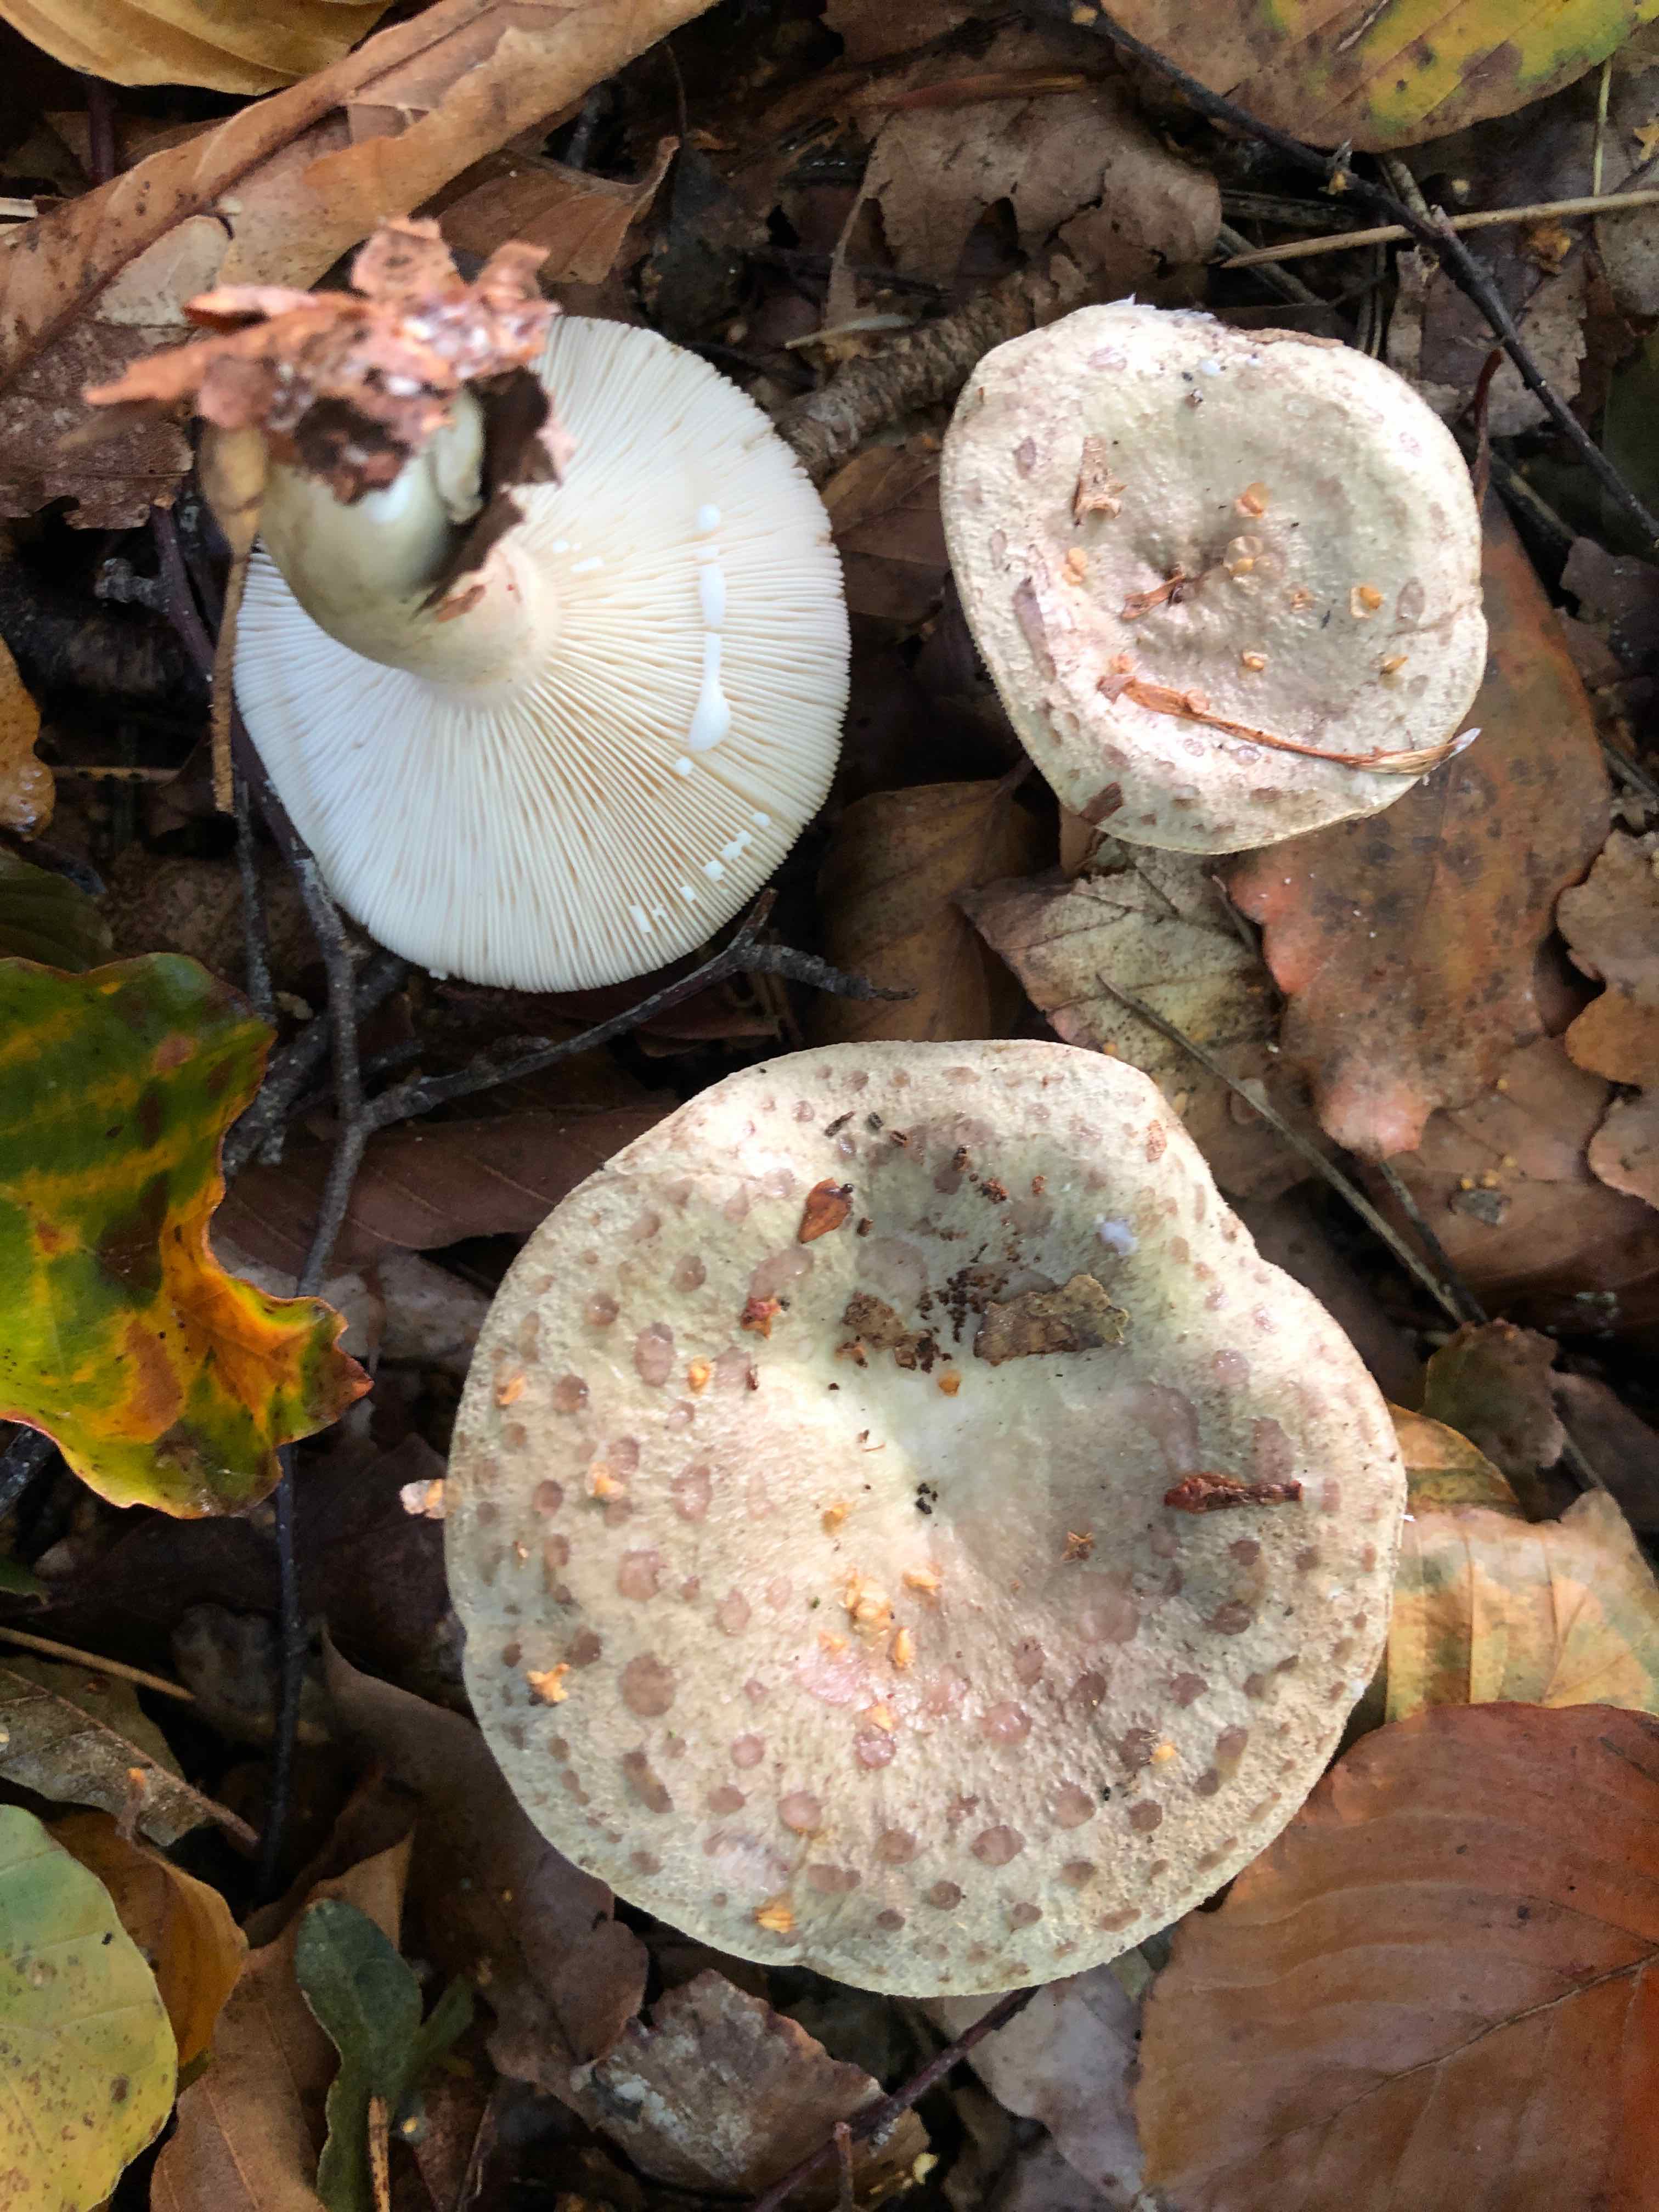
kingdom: Fungi
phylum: Basidiomycota
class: Agaricomycetes
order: Russulales
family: Russulaceae
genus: Lactarius
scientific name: Lactarius blennius
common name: dråbeplettet mælkehat
